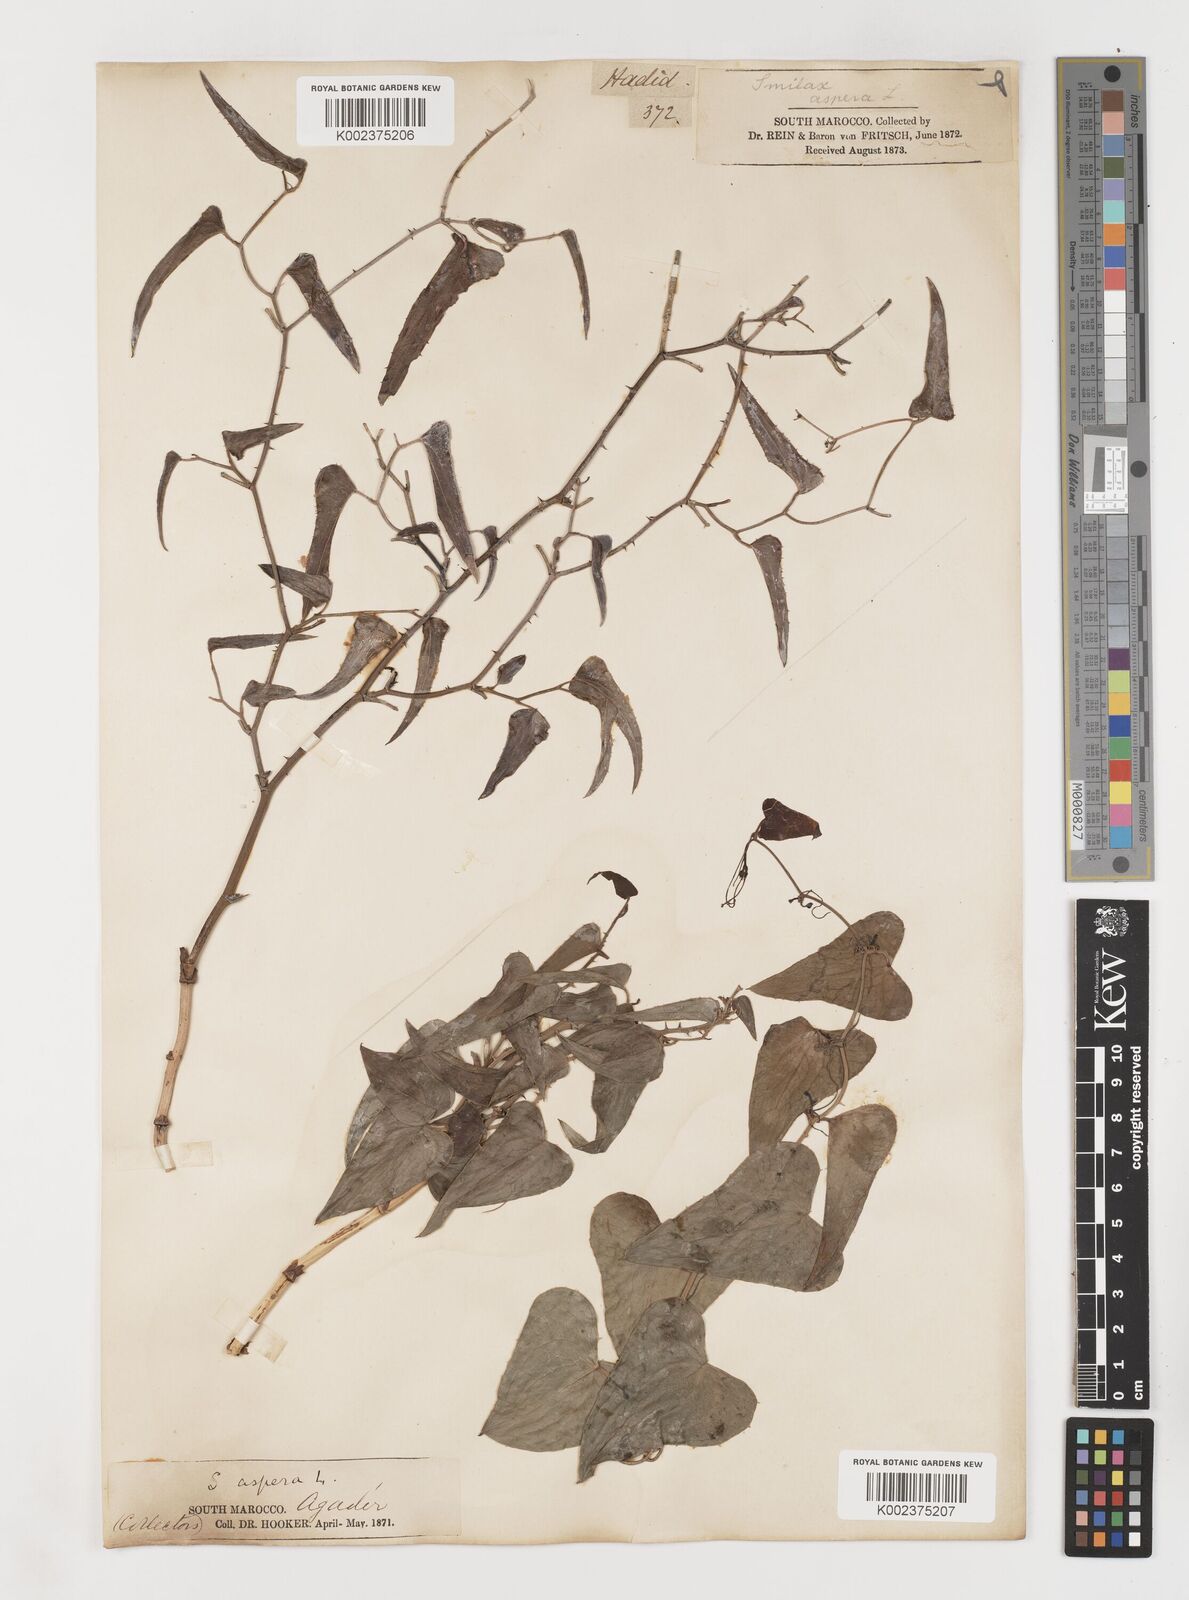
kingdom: Plantae
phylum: Tracheophyta
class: Liliopsida
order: Liliales
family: Smilacaceae
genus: Smilax
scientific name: Smilax aspera
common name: Common smilax
